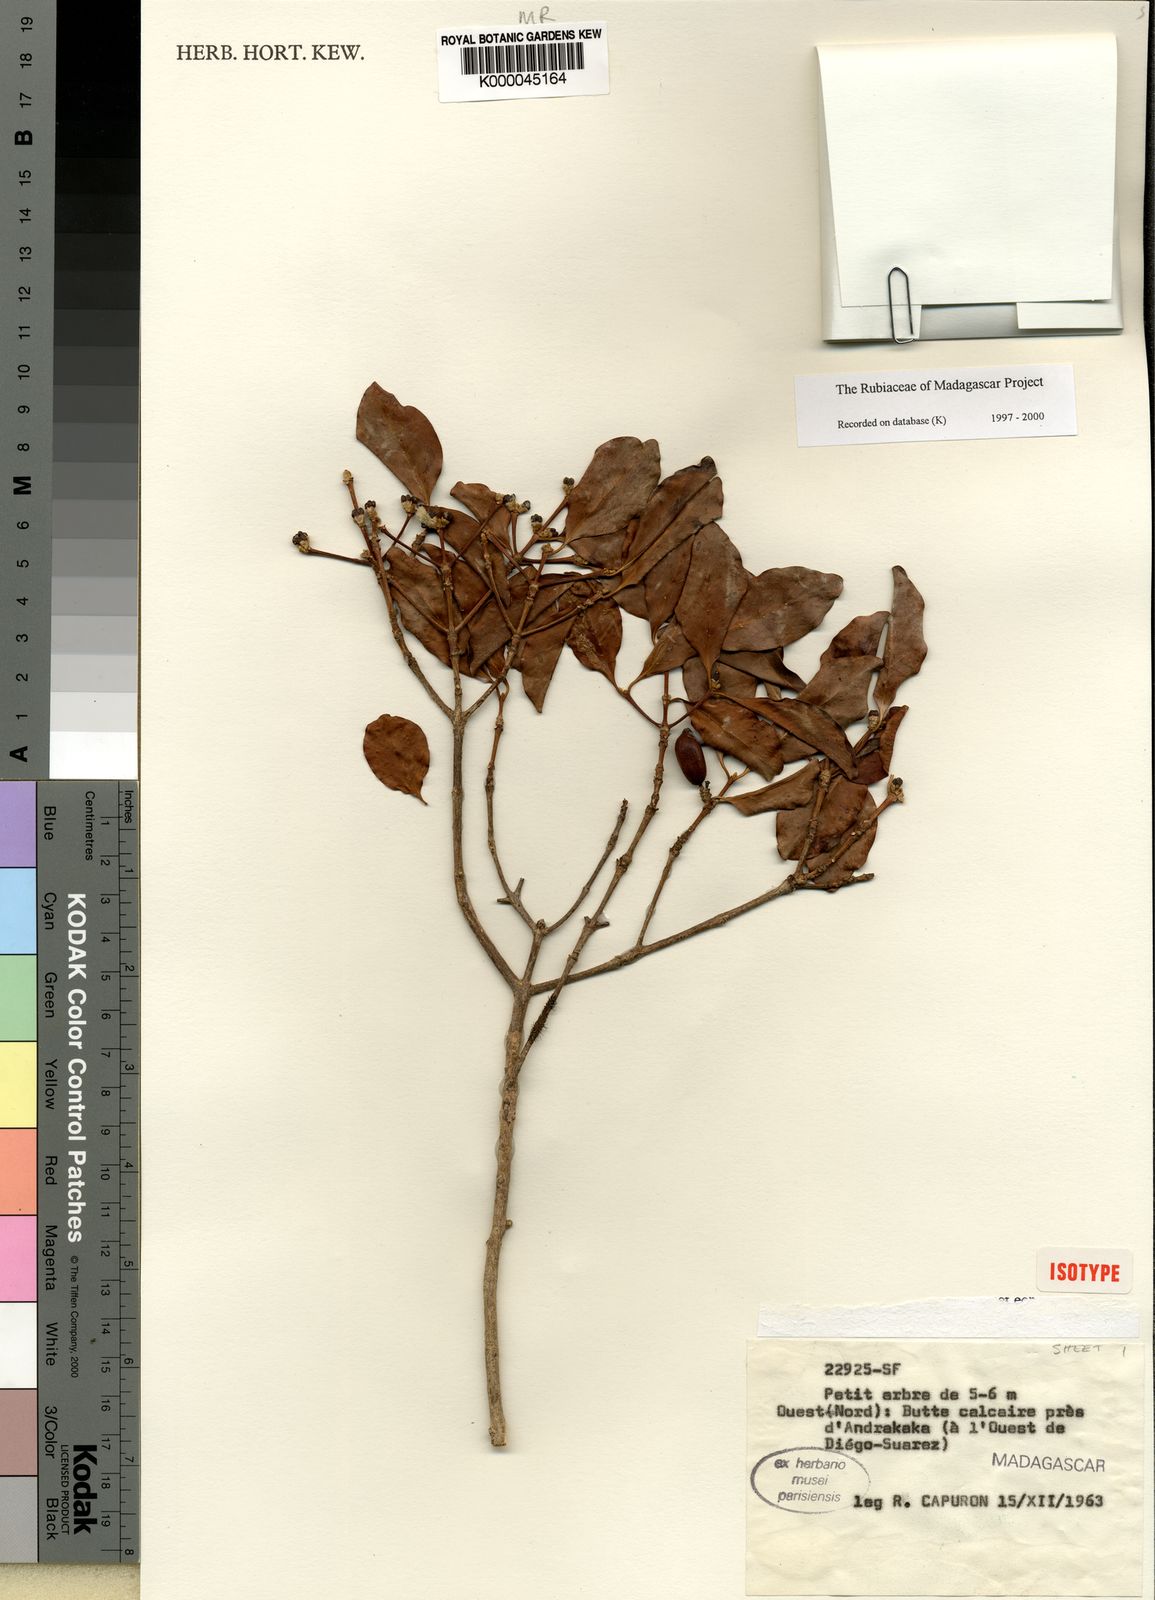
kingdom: Plantae
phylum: Tracheophyta
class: Magnoliopsida
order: Gentianales
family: Rubiaceae
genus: Coffea
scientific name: Coffea tsirananae
